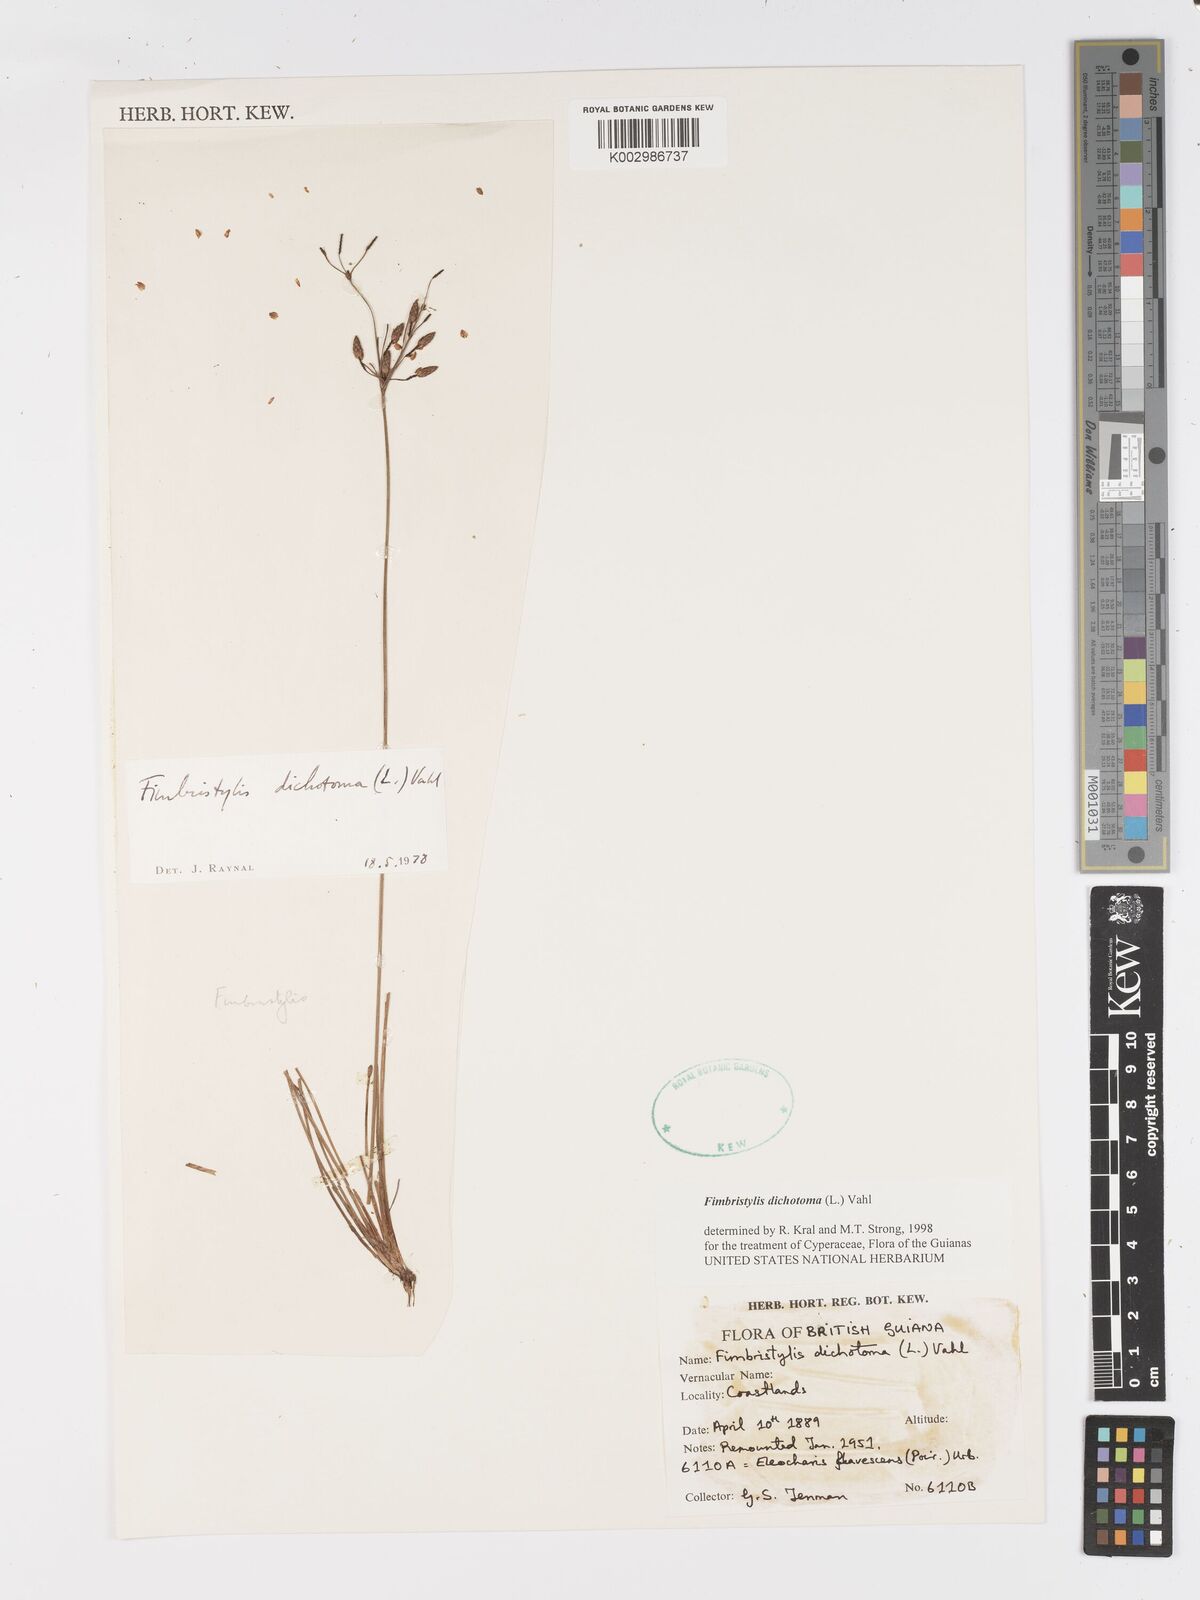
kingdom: Plantae
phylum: Tracheophyta
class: Liliopsida
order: Poales
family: Cyperaceae
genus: Fimbristylis
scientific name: Fimbristylis dichotoma
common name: Forked fimbry
